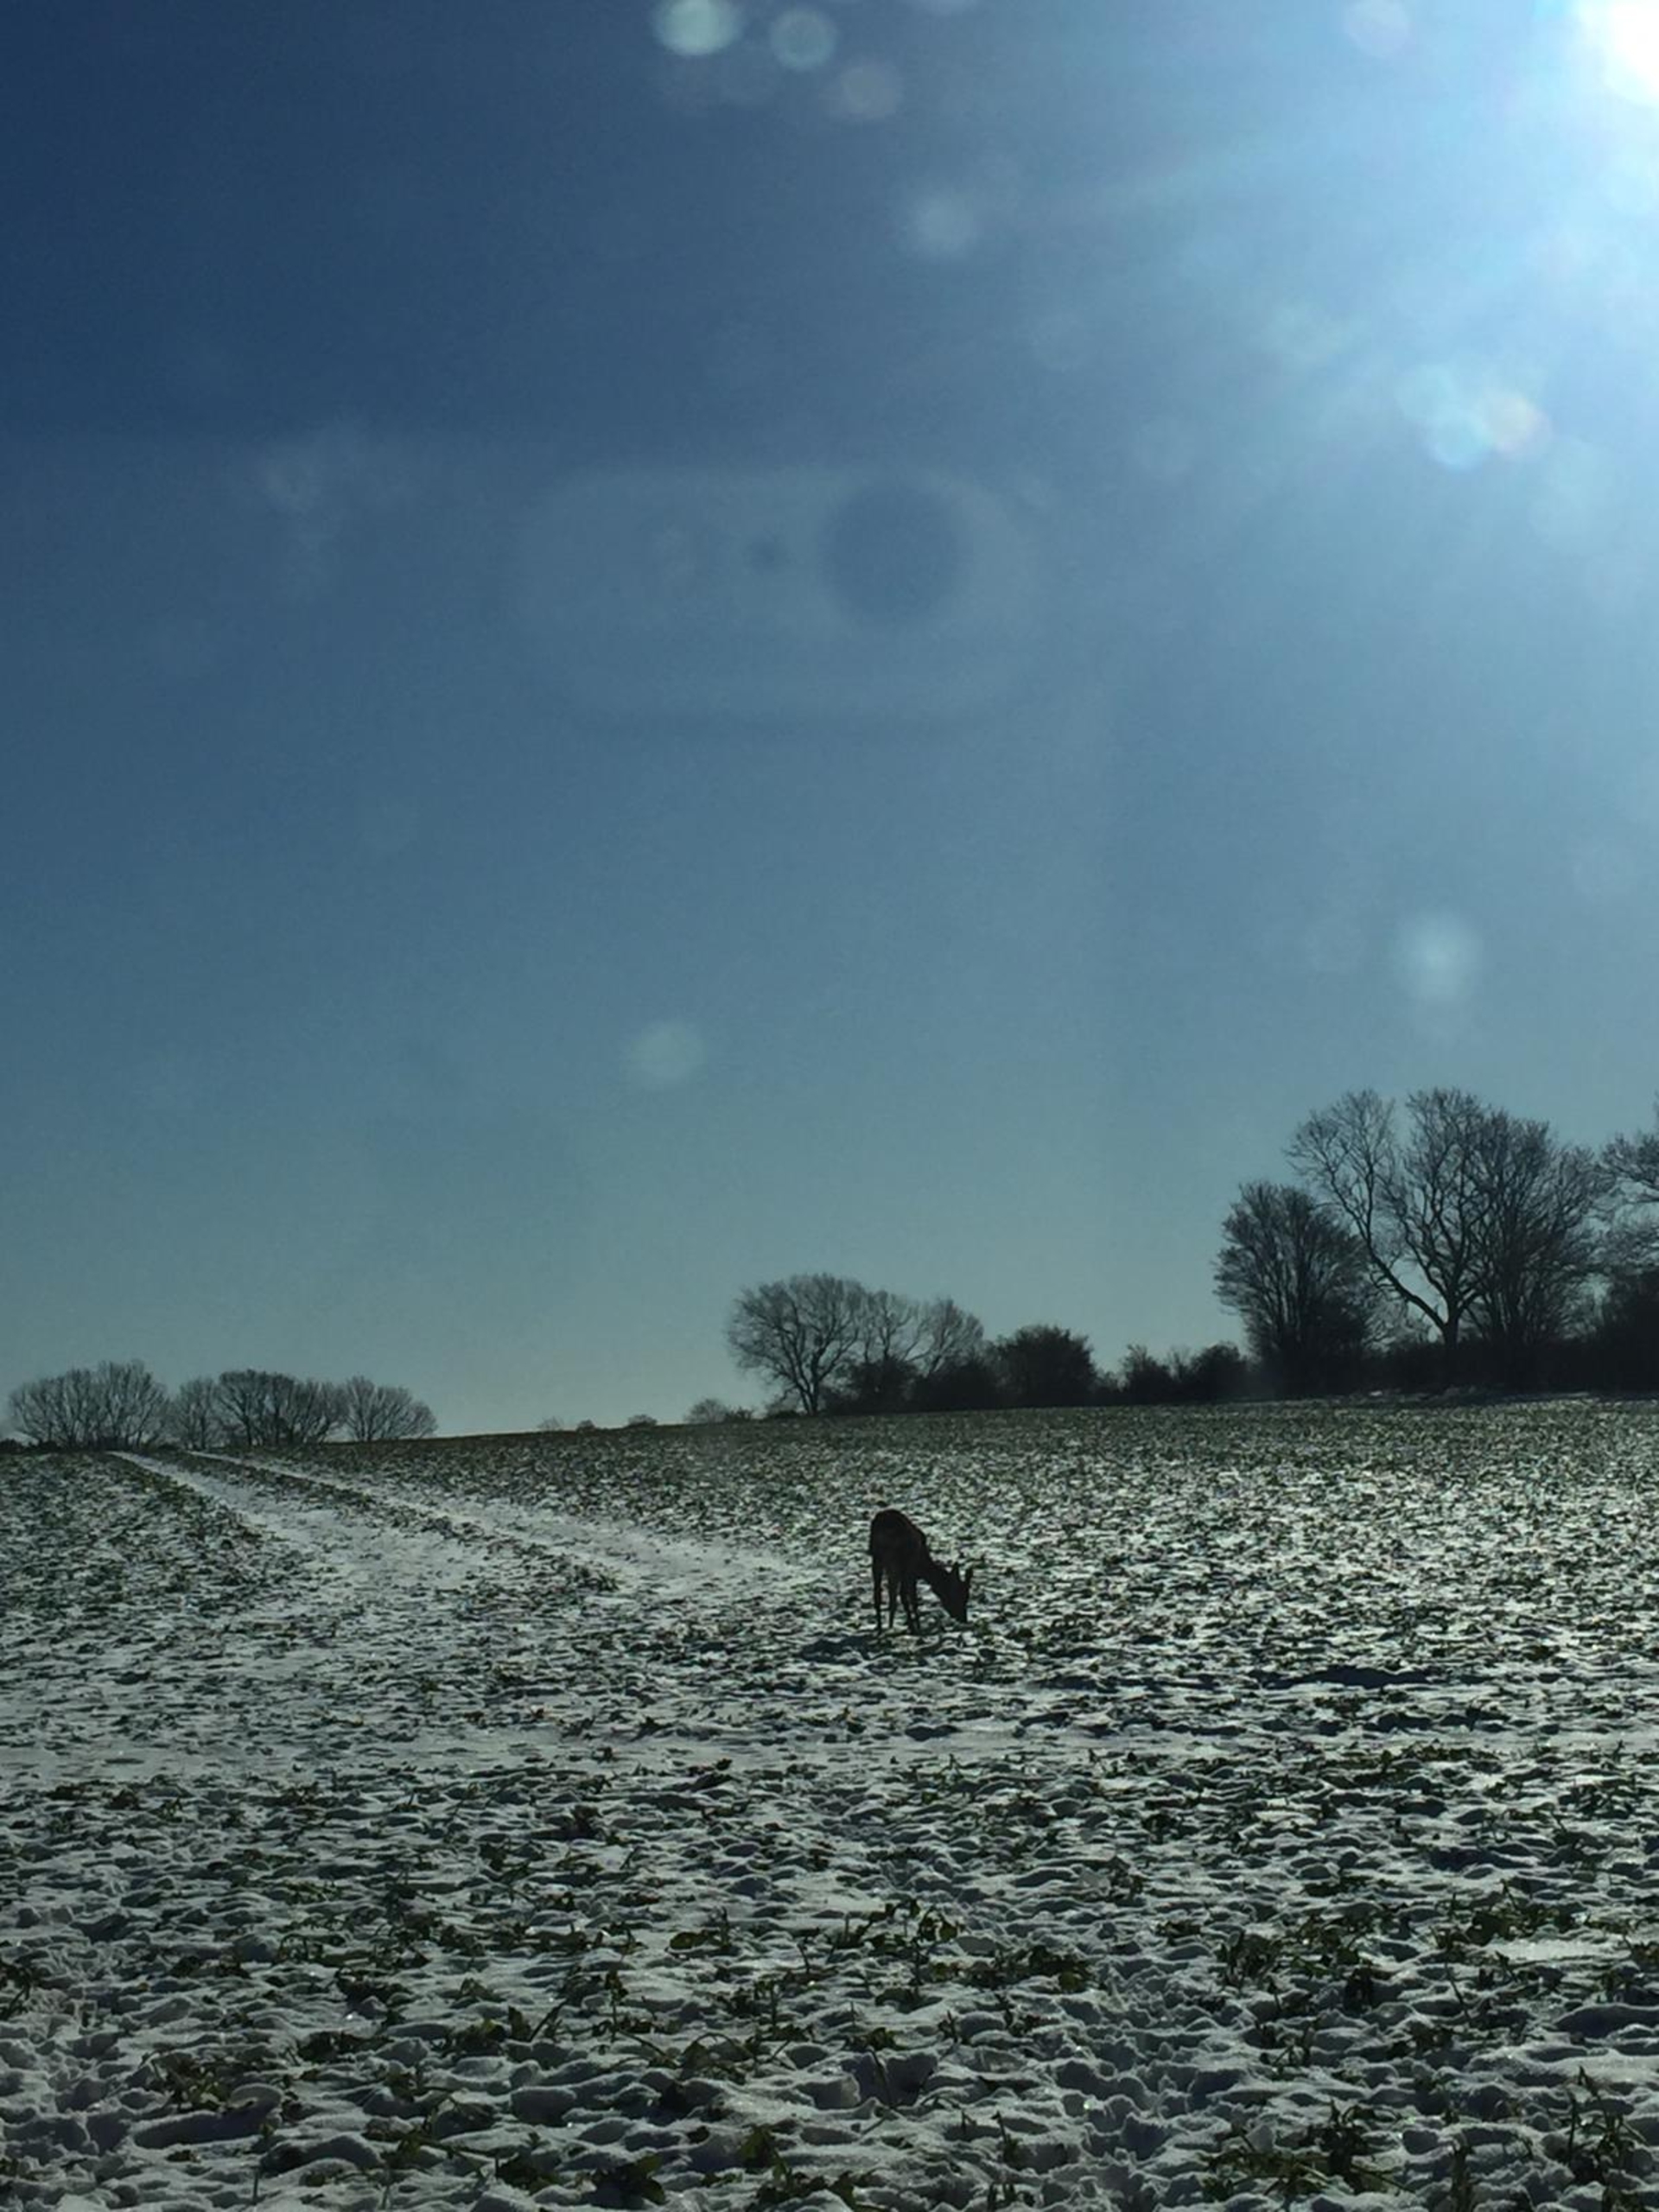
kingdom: Animalia
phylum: Chordata
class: Mammalia
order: Artiodactyla
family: Cervidae
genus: Capreolus
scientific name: Capreolus capreolus
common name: Rådyr
